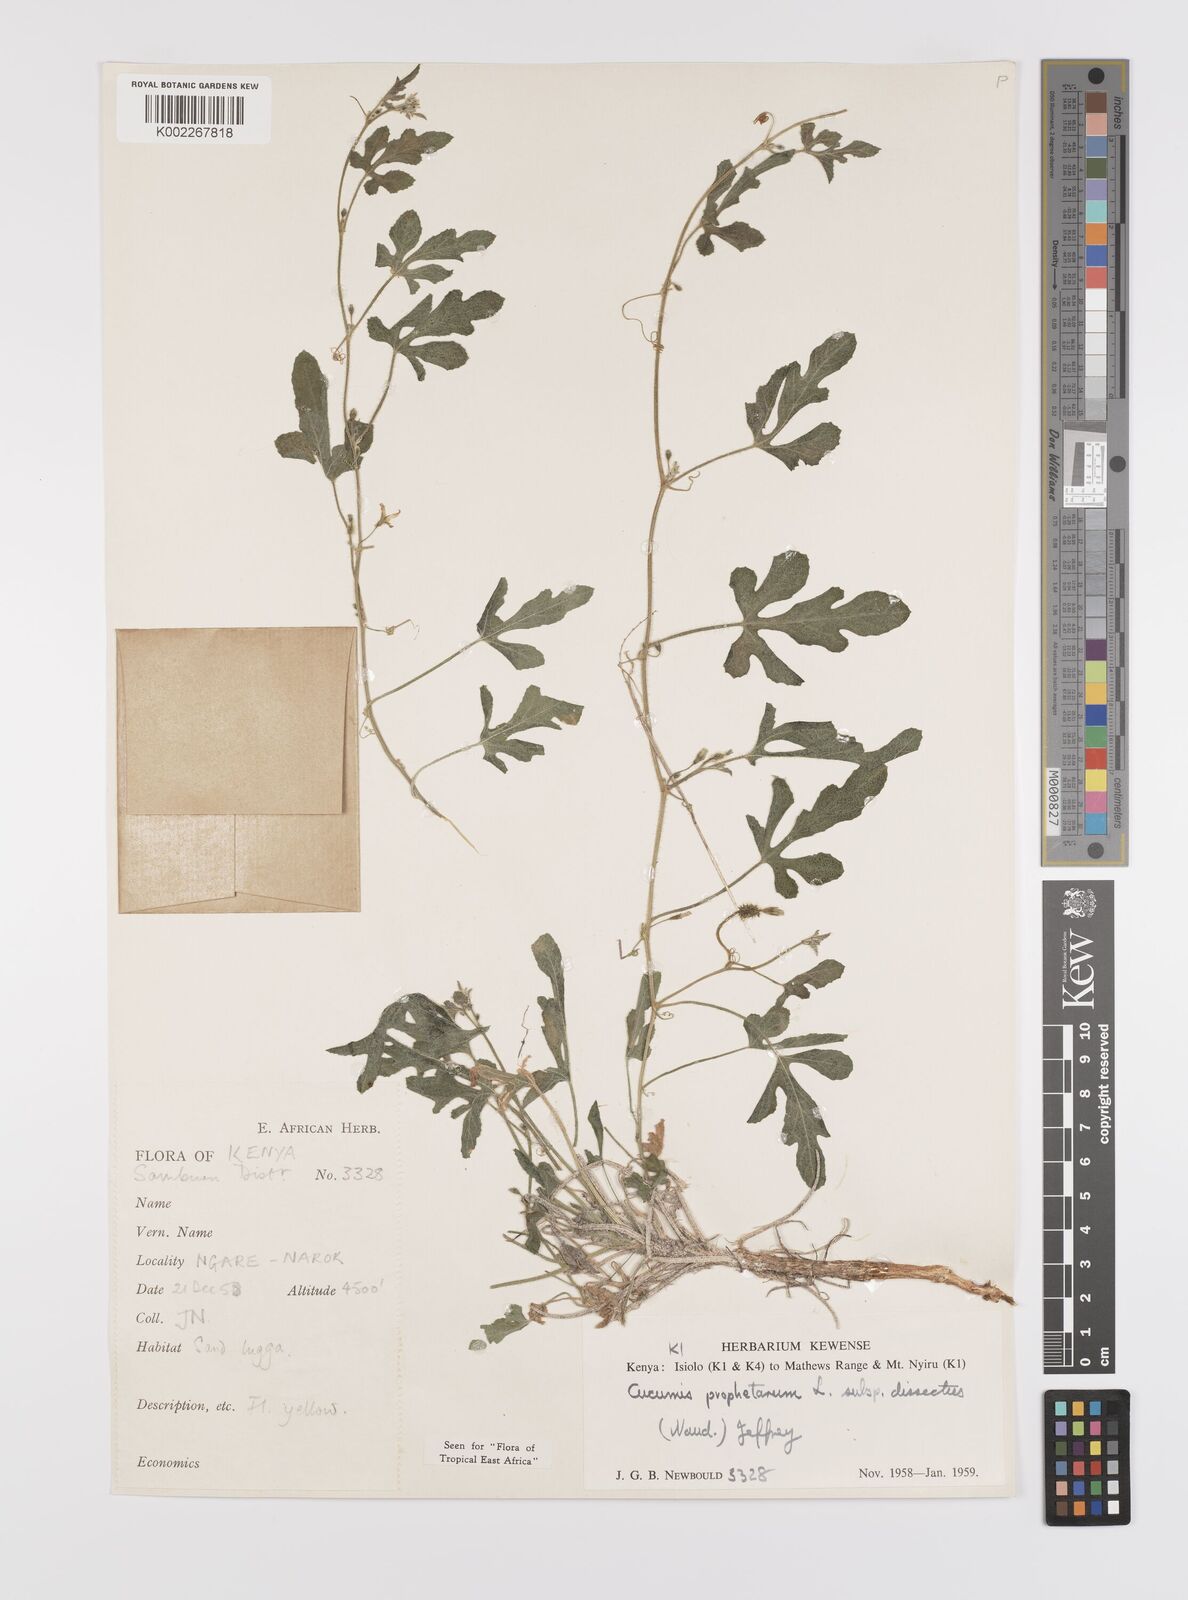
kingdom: Plantae
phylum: Tracheophyta
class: Magnoliopsida
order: Cucurbitales
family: Cucurbitaceae
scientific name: Cucurbitaceae
